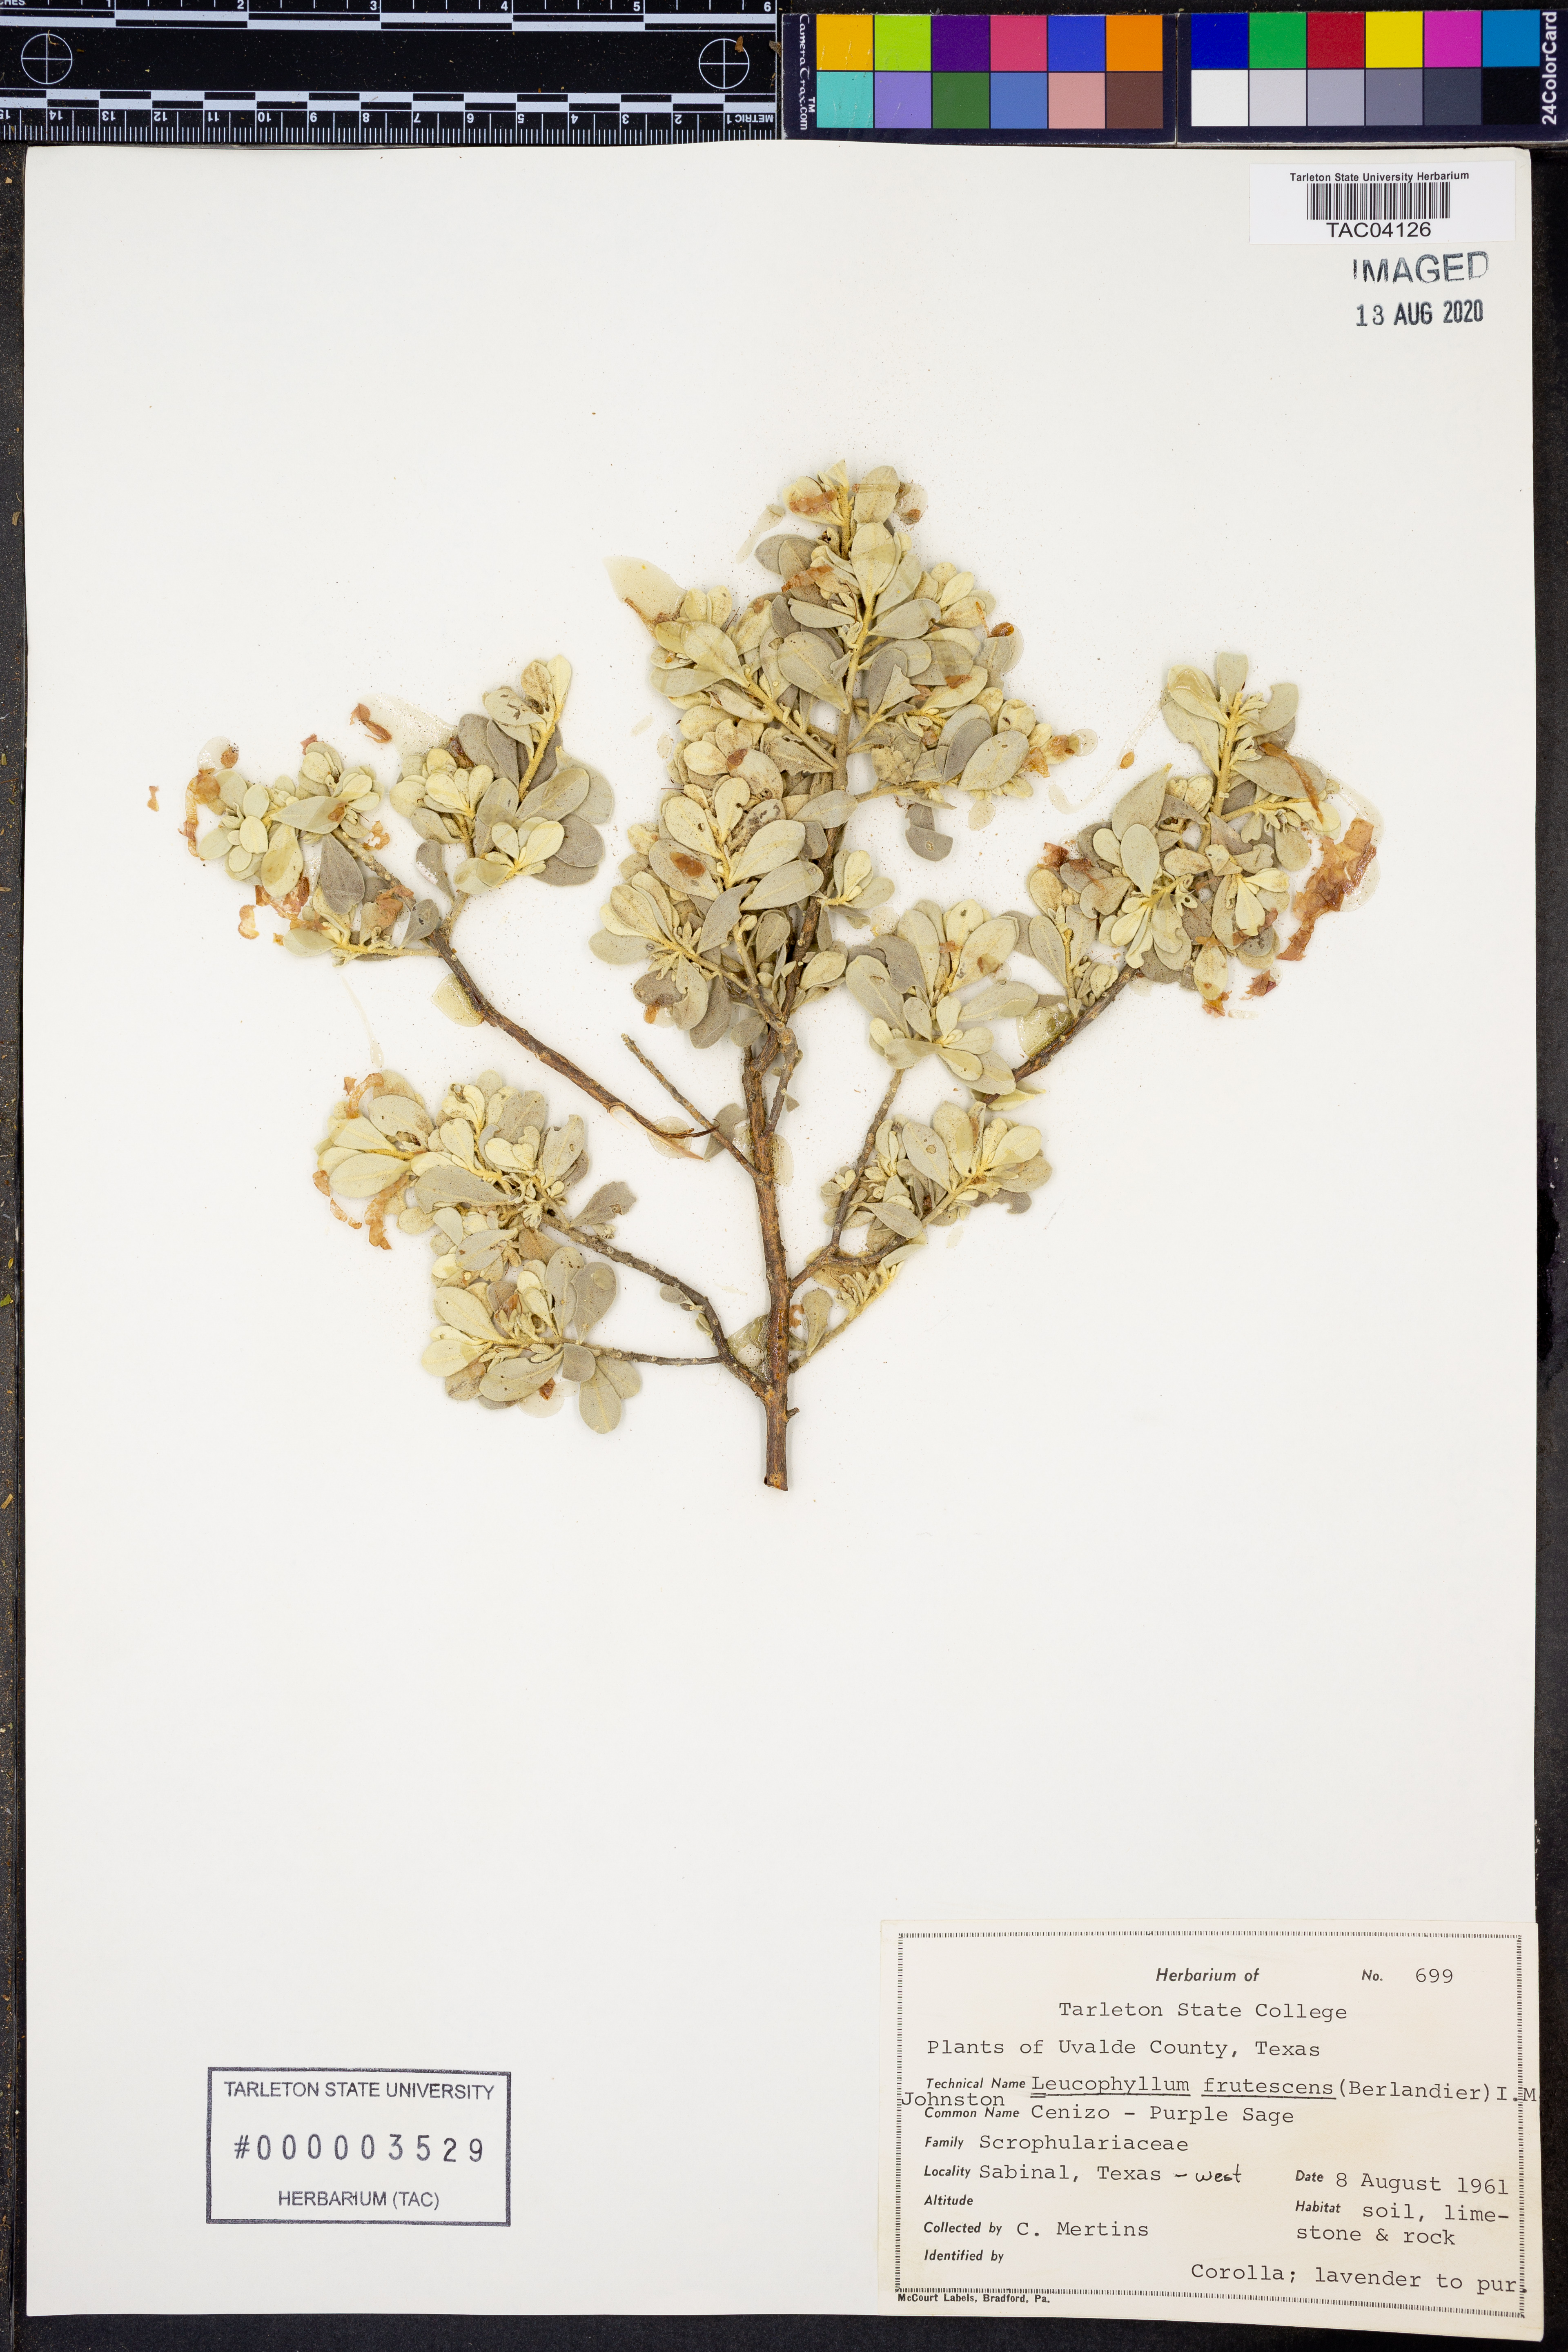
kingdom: Plantae
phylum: Tracheophyta
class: Magnoliopsida
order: Lamiales
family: Scrophulariaceae
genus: Leucophyllum
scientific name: Leucophyllum frutescens
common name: Texas silverleaf
